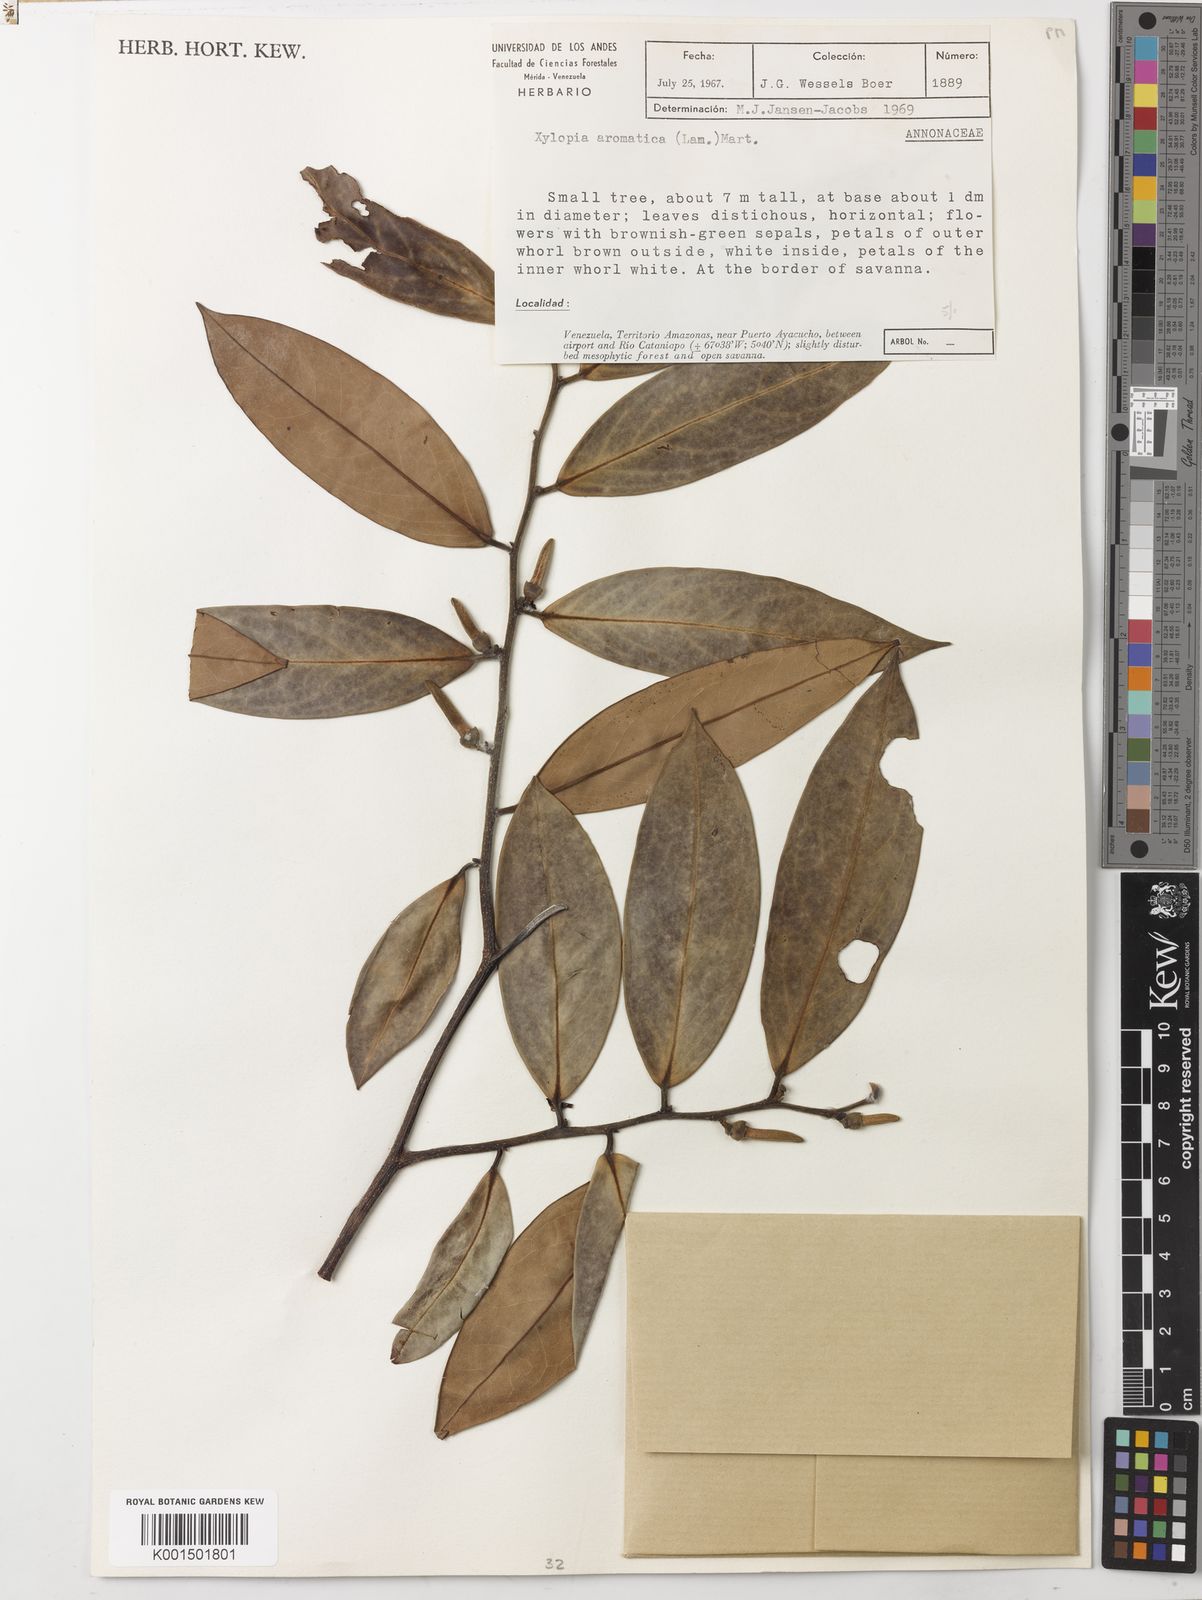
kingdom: Plantae
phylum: Tracheophyta
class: Magnoliopsida
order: Magnoliales
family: Annonaceae
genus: Xylopia
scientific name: Xylopia aromatica
